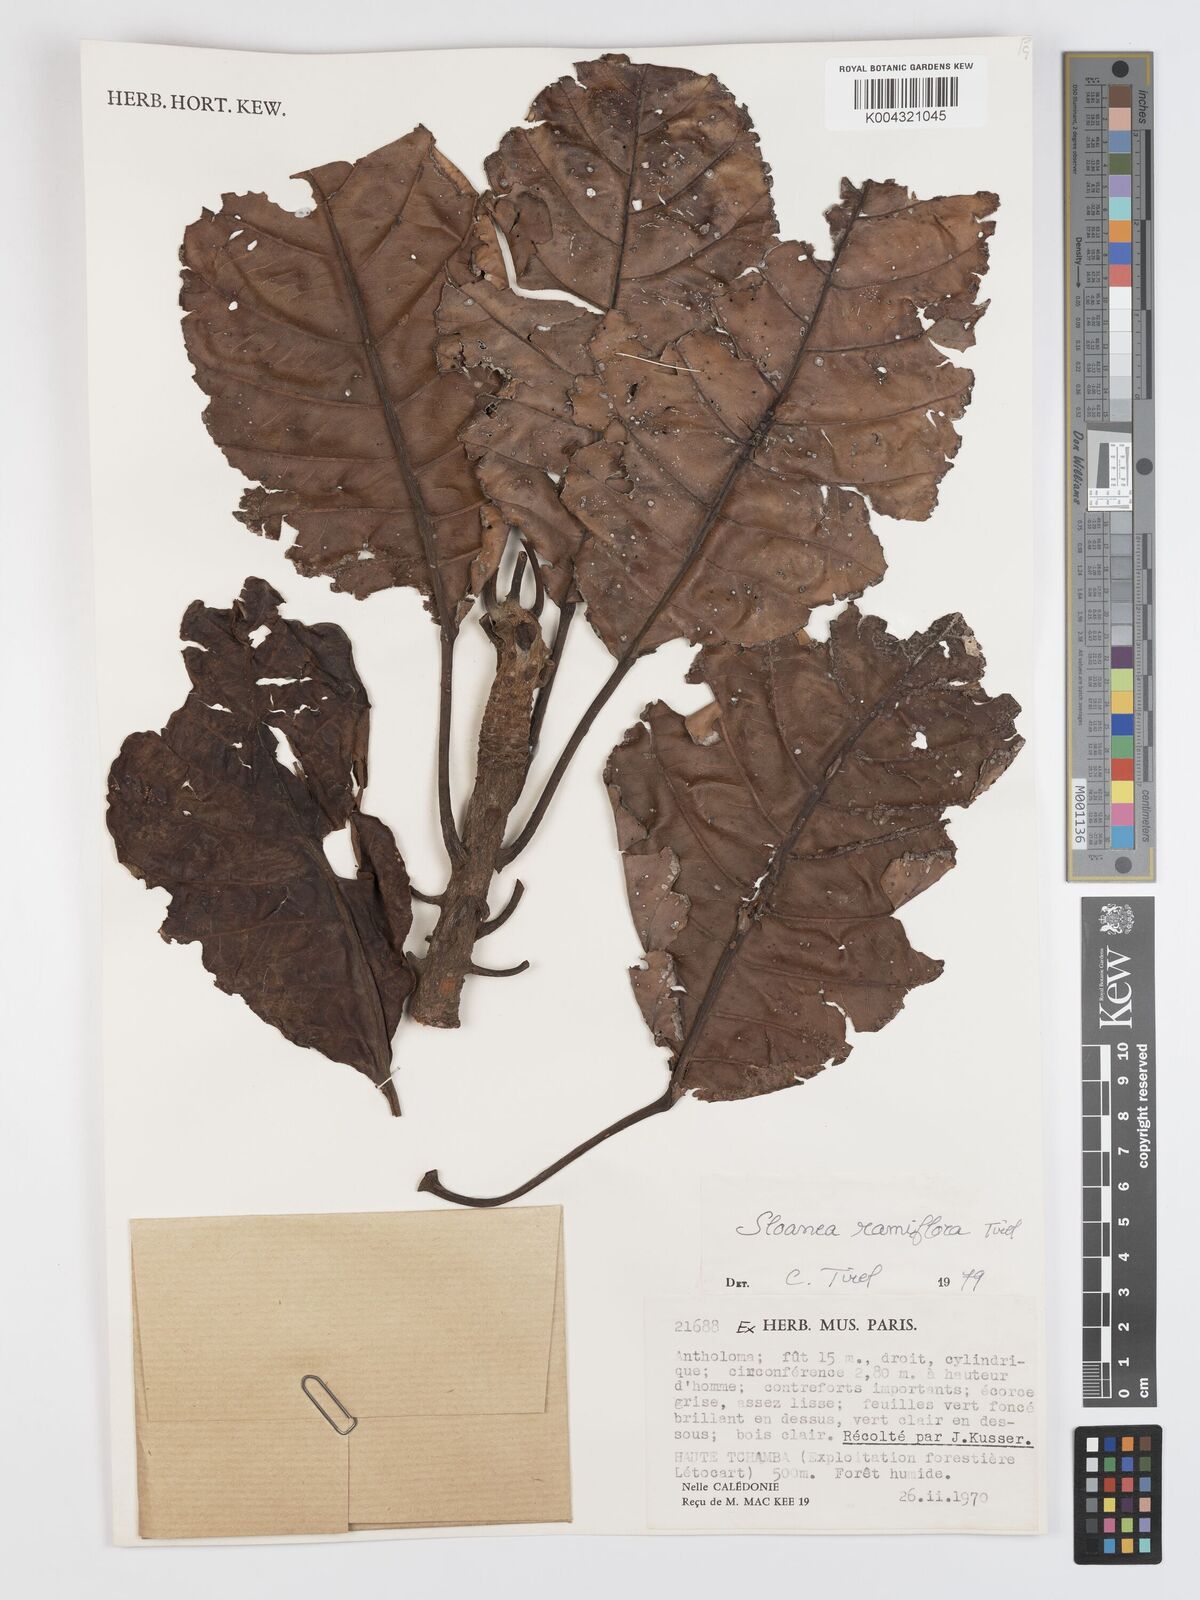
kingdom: Plantae
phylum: Tracheophyta
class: Magnoliopsida
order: Oxalidales
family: Elaeocarpaceae
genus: Sloanea
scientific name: Sloanea ramiflora
